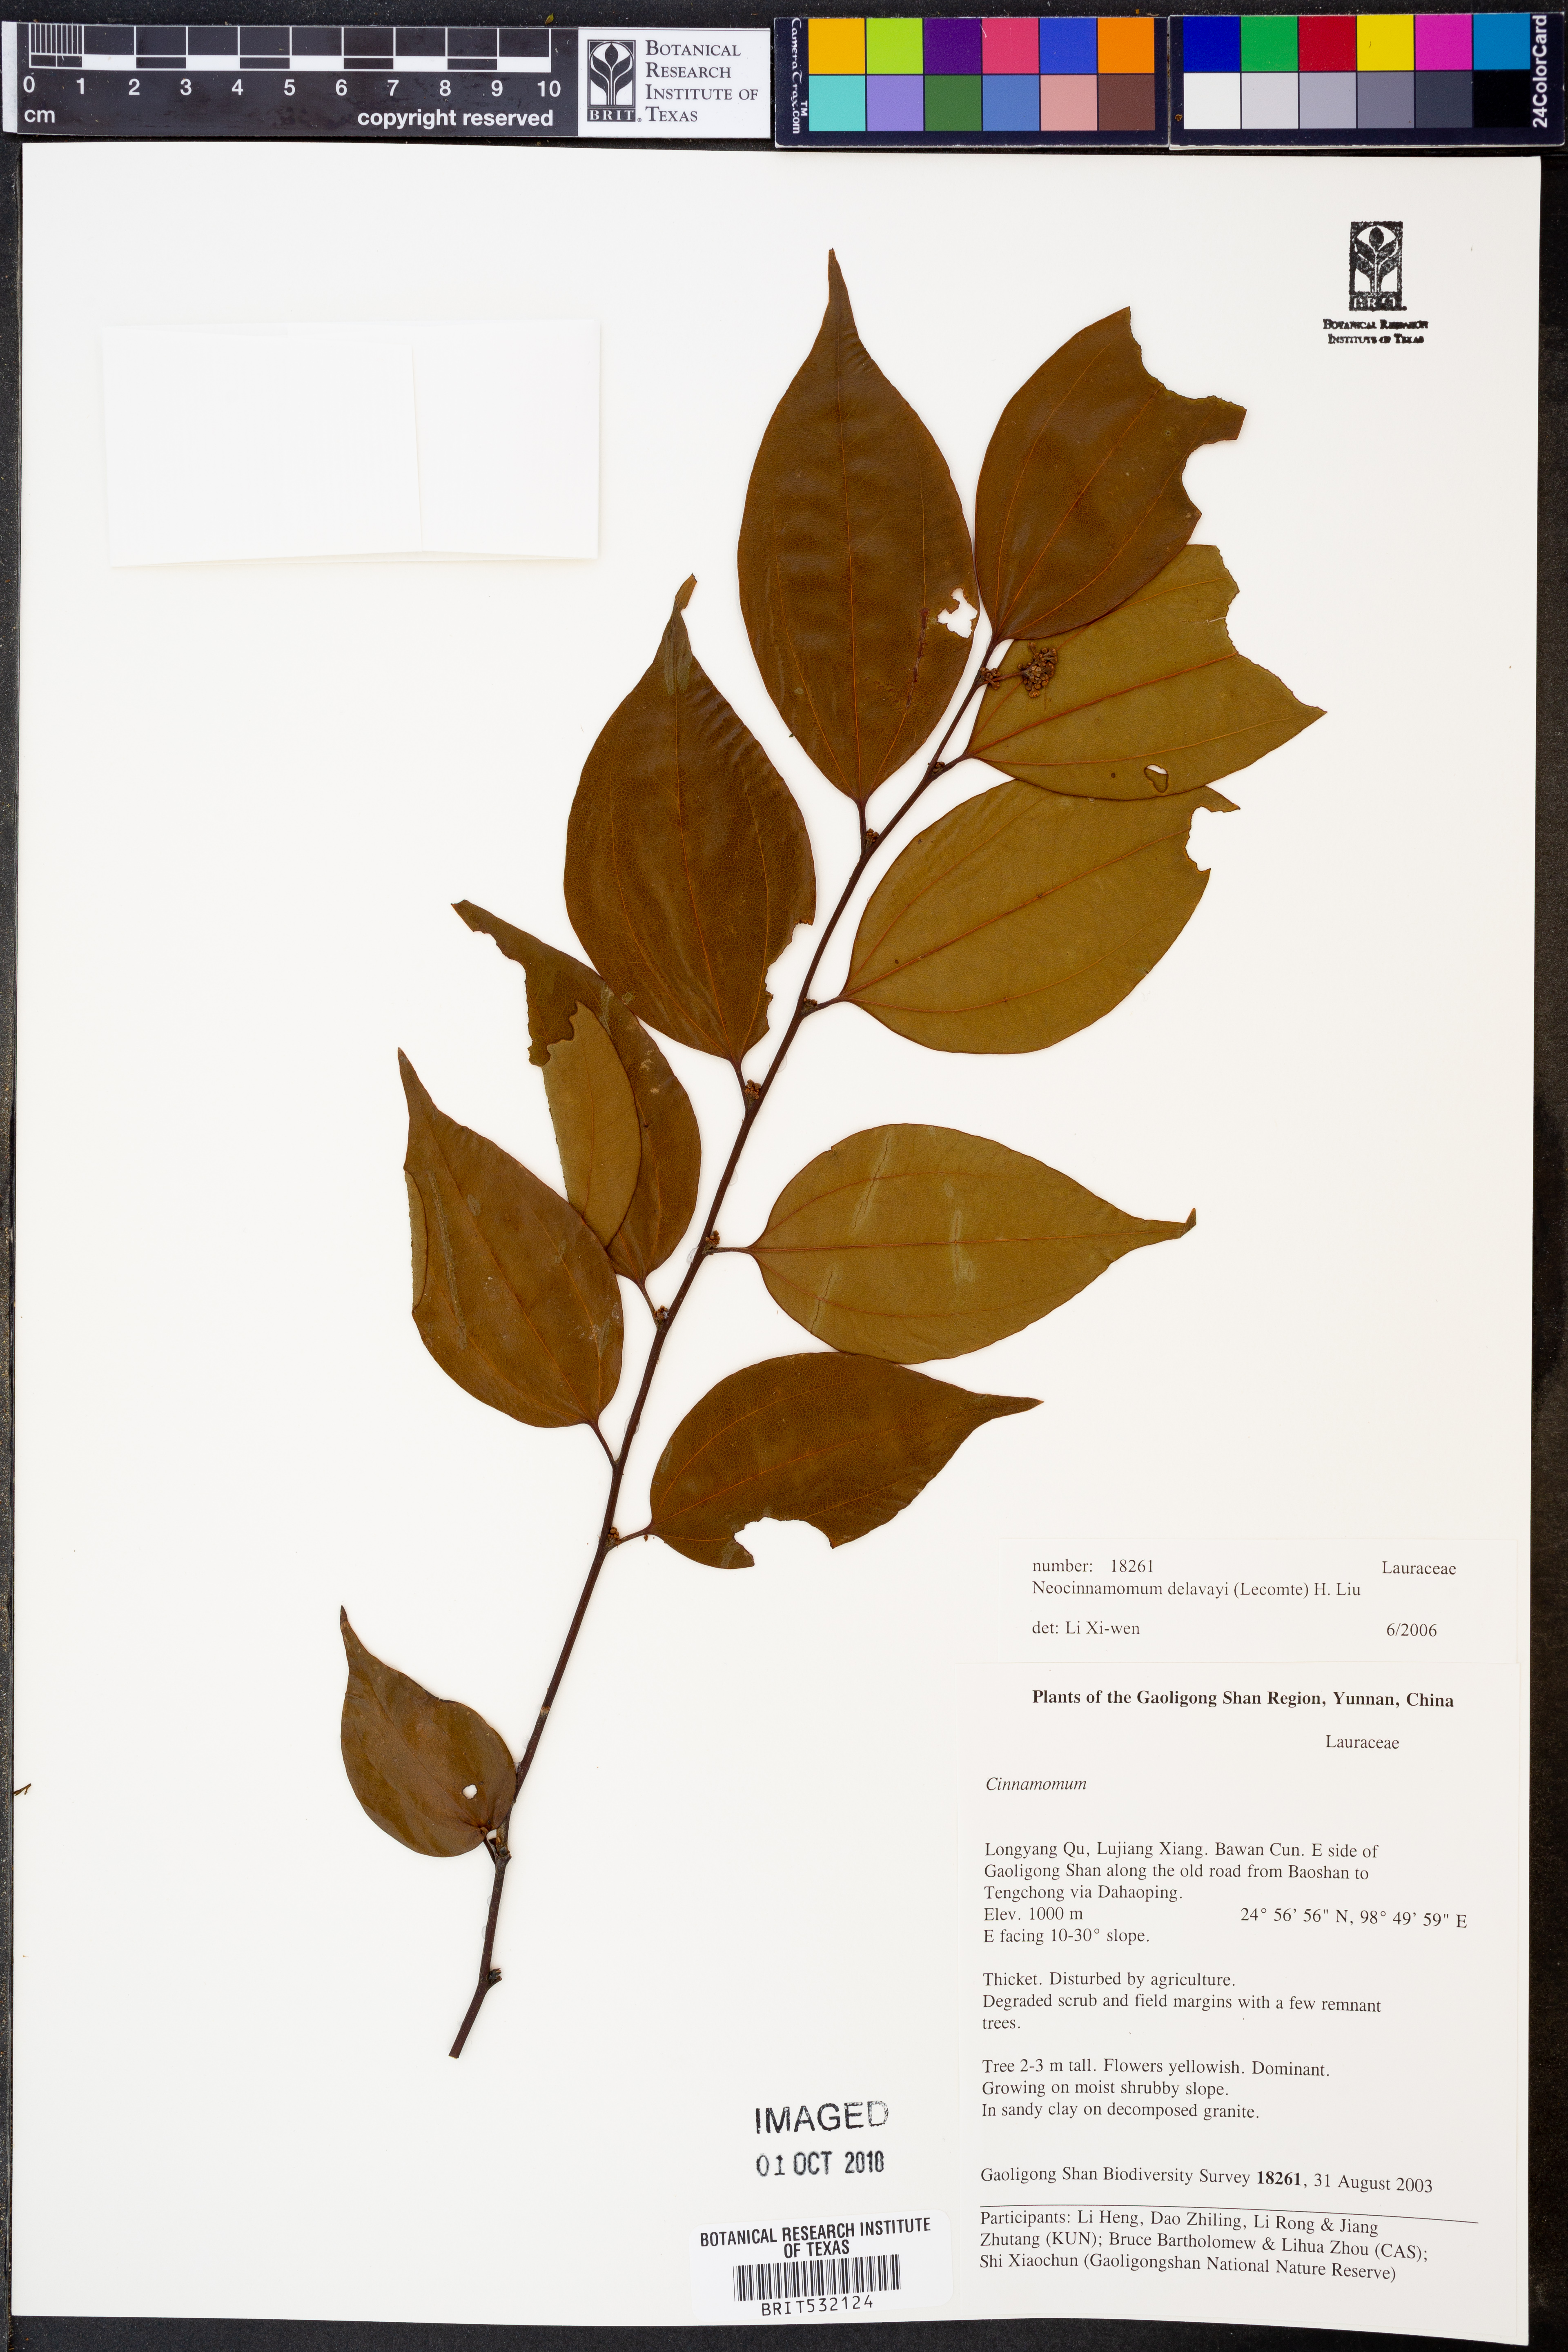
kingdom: Plantae
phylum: Tracheophyta
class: Magnoliopsida
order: Laurales
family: Lauraceae
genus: Neocinnamomum
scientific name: Neocinnamomum delavayi
